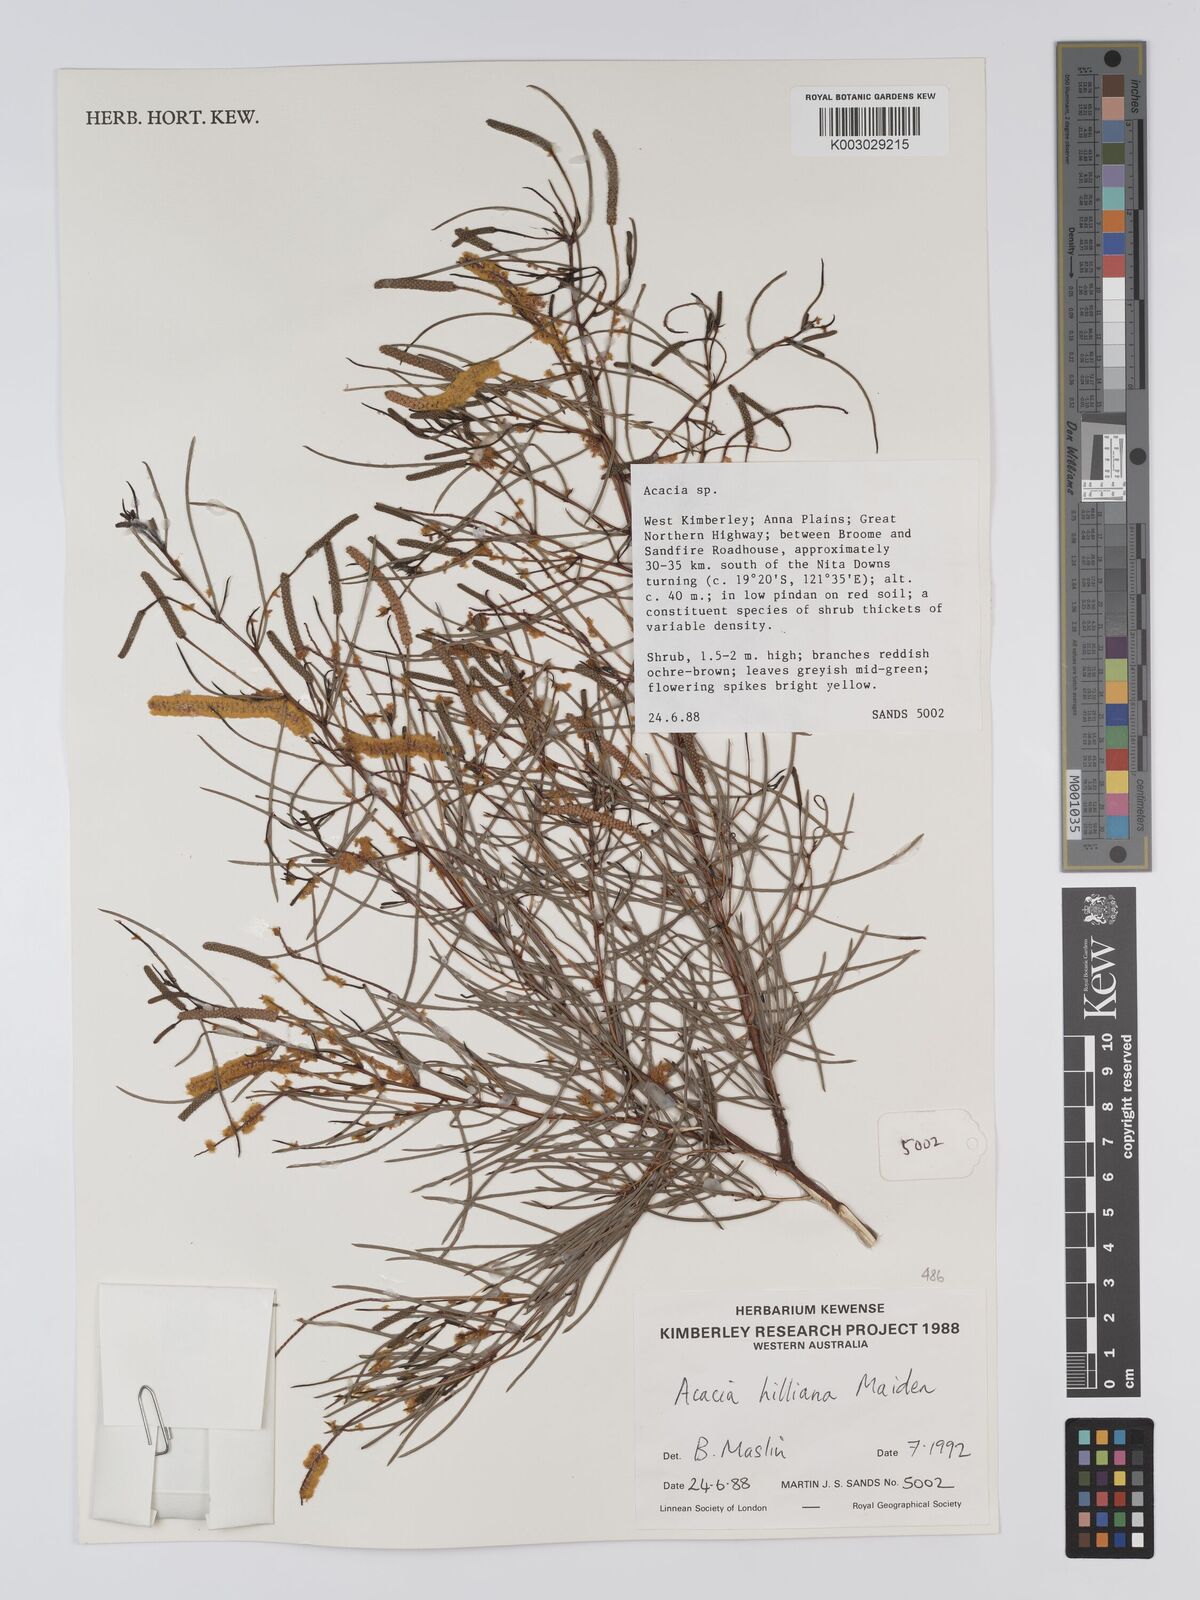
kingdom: Plantae
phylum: Tracheophyta
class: Magnoliopsida
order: Fabales
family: Fabaceae
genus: Acacia
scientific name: Acacia hilliana
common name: Hill's tabletop wattle
